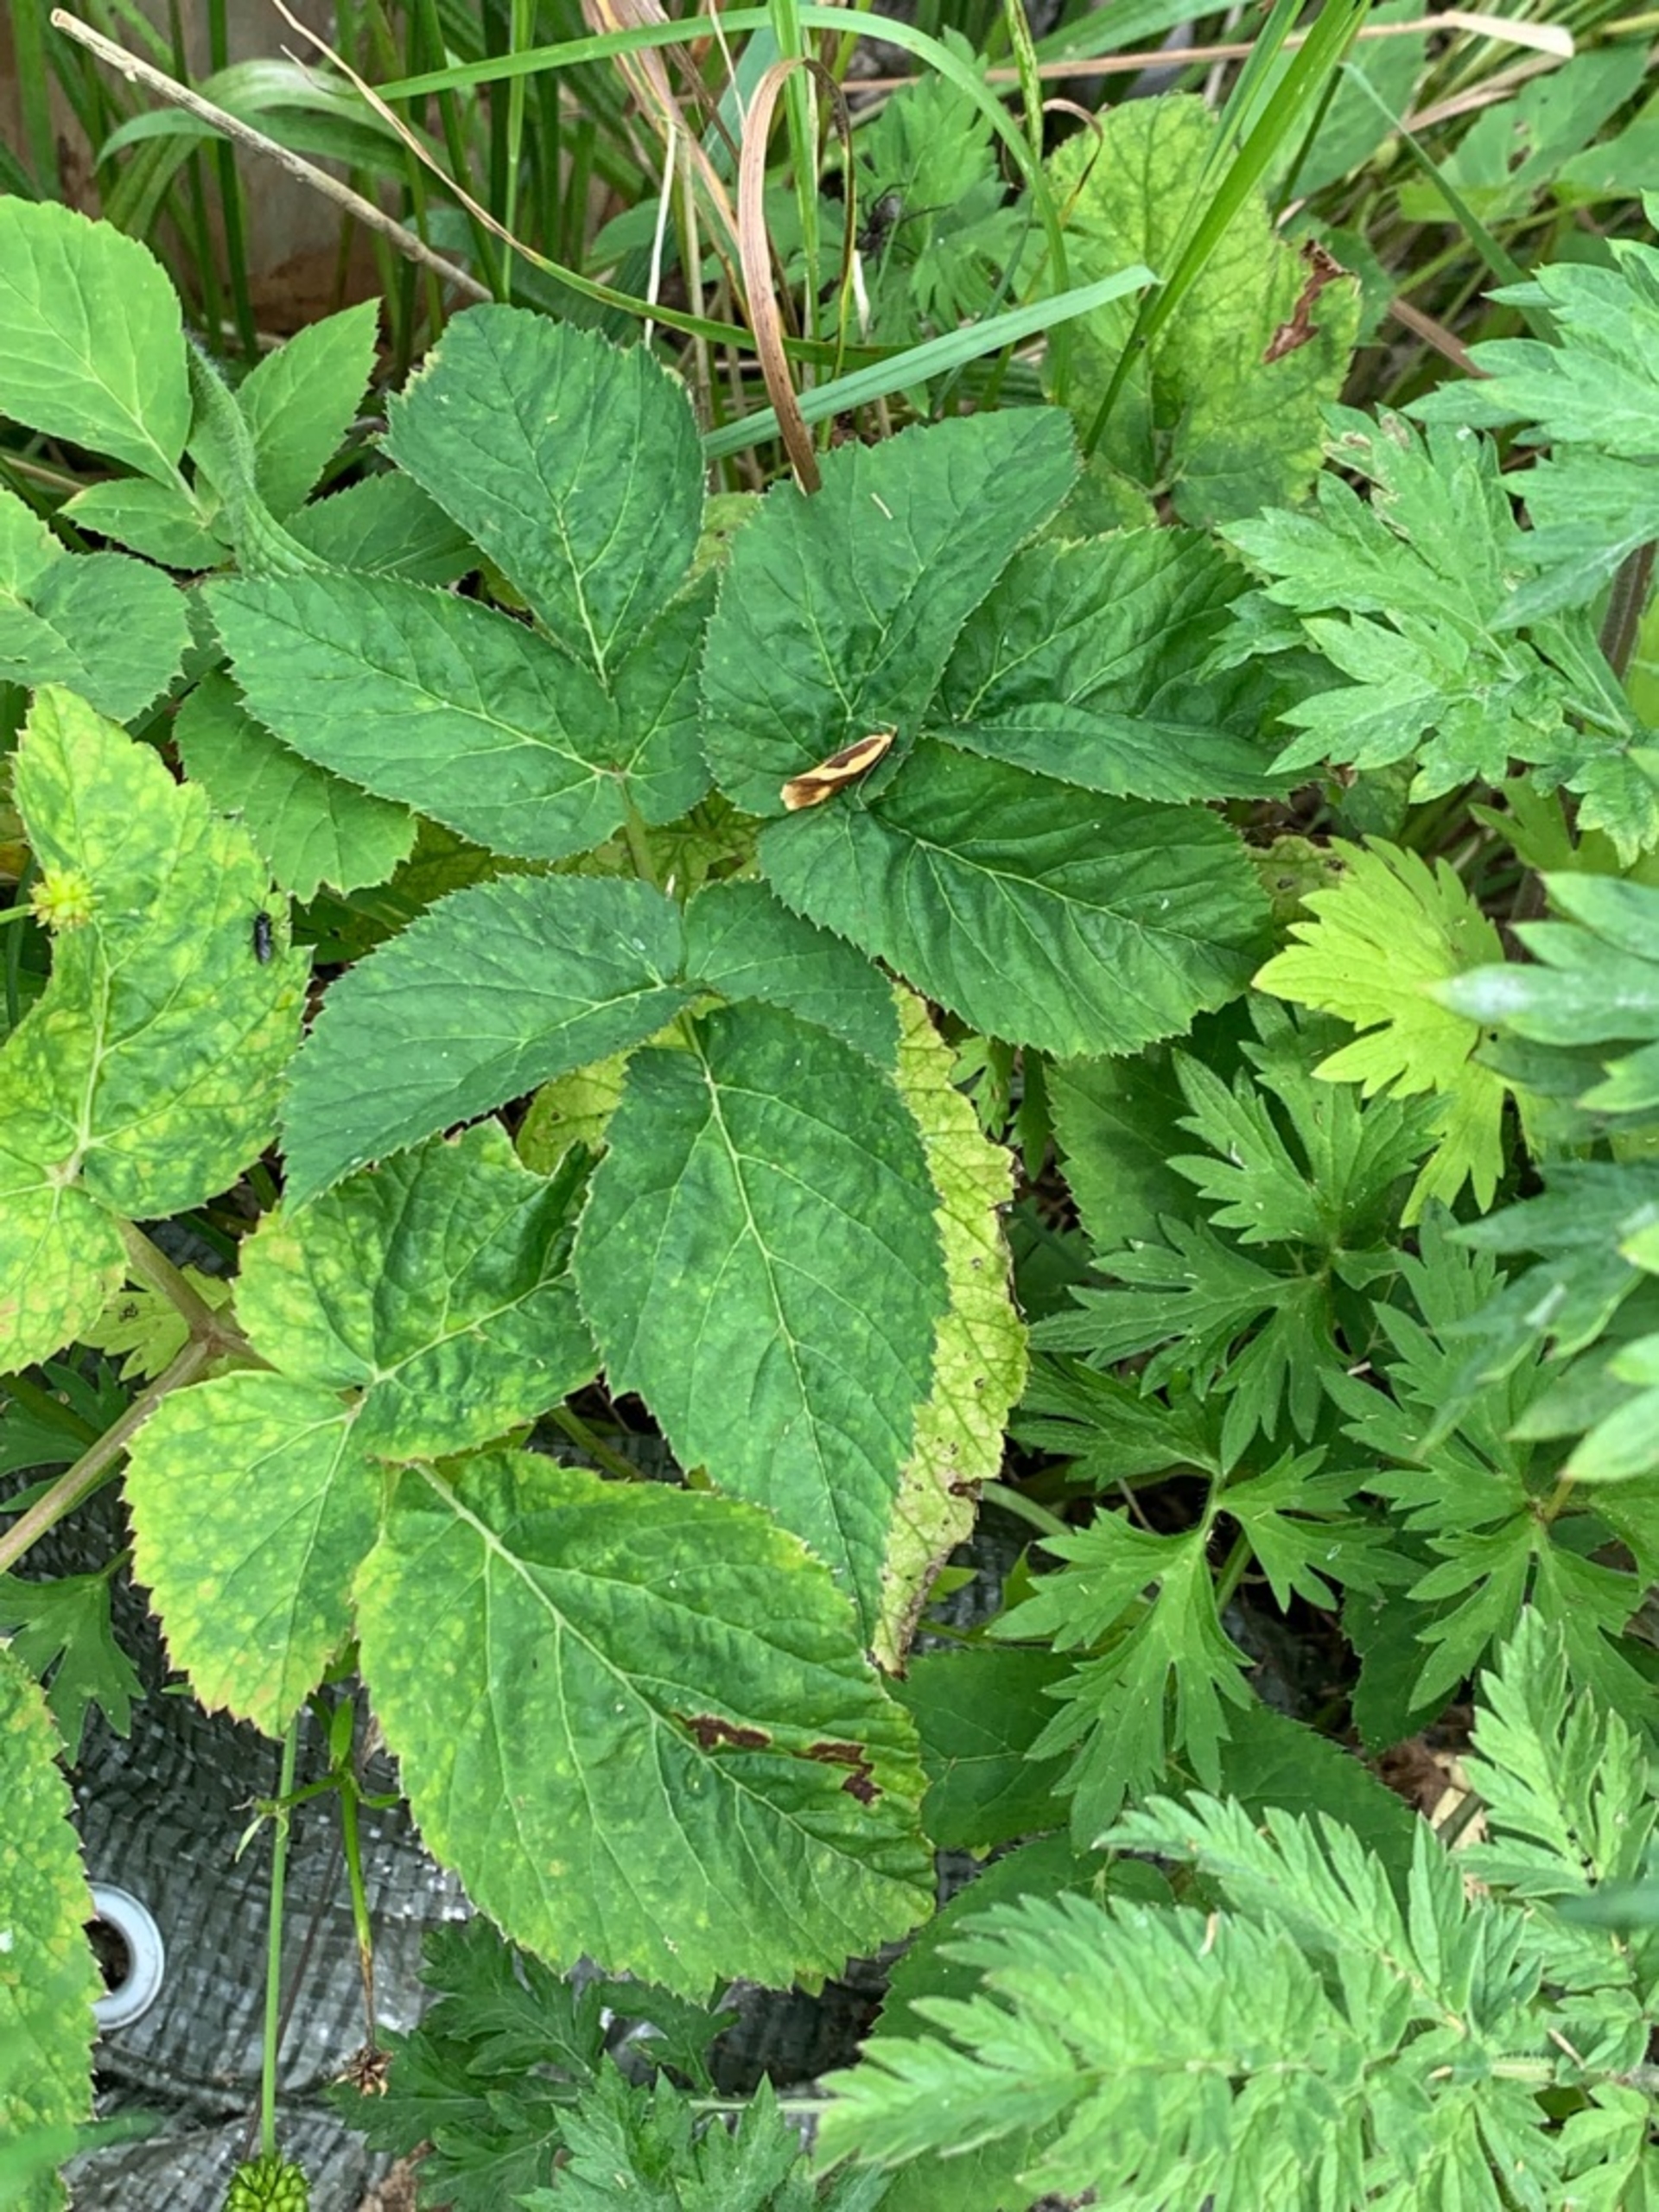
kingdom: Animalia
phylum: Arthropoda
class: Insecta
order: Lepidoptera
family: Oecophoridae
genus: Harpella
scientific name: Harpella forficella
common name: Kæmpeprydvinge
